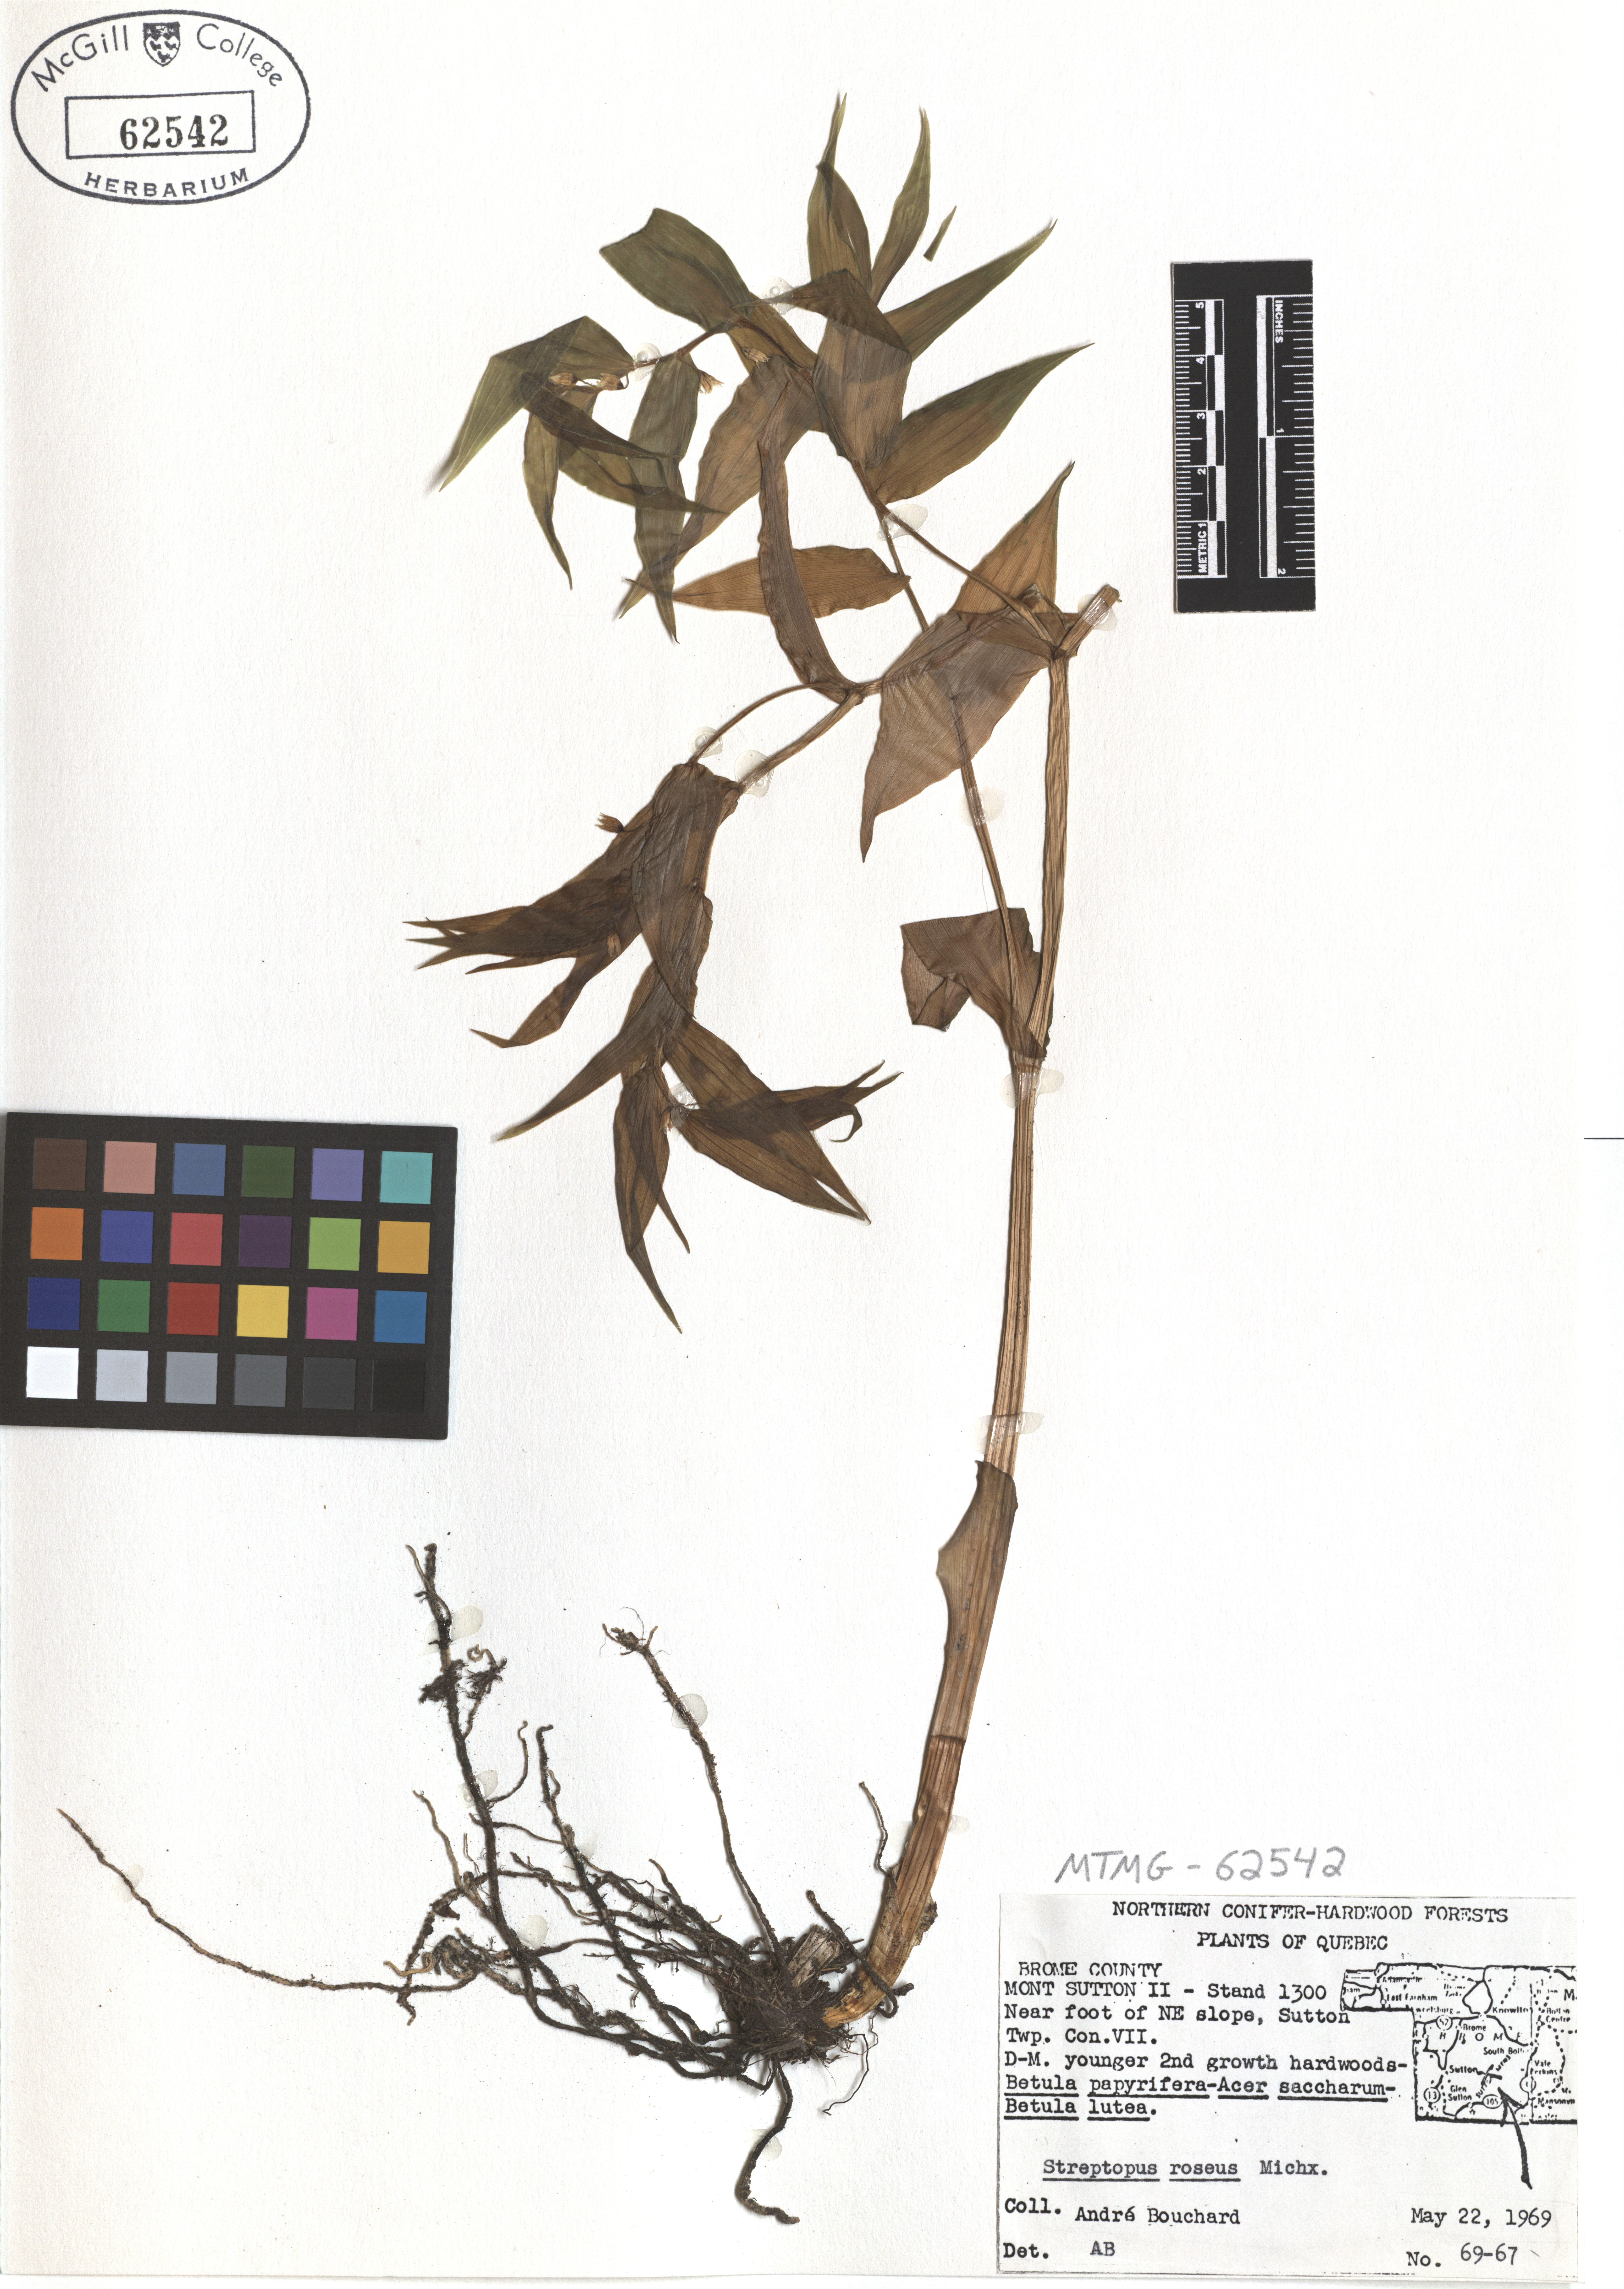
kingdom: Plantae
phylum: Tracheophyta
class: Liliopsida
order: Liliales
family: Liliaceae
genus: Streptopus
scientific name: Streptopus lanceolatus
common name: Rose mandarin
